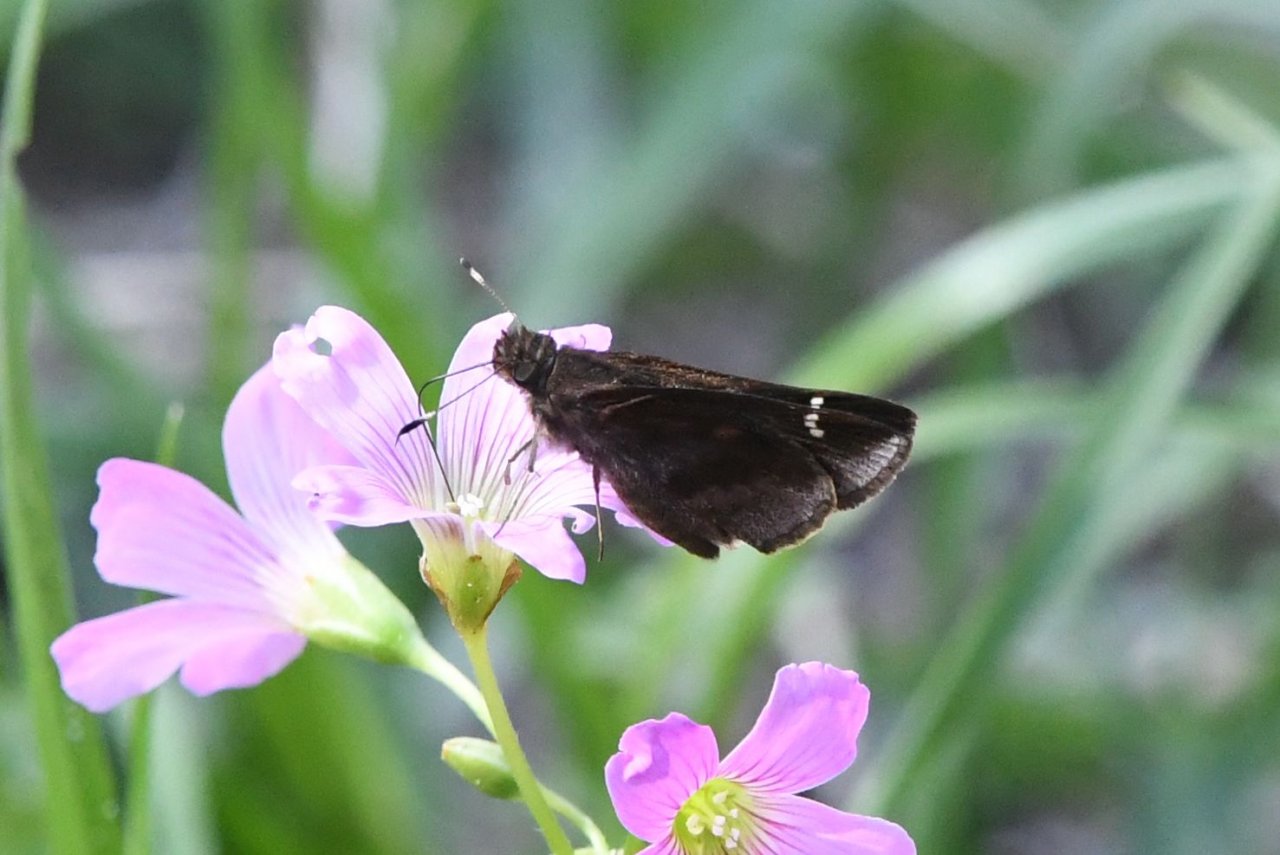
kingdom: Animalia
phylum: Arthropoda
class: Insecta
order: Lepidoptera
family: Hesperiidae
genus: Lerema
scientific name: Lerema accius
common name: Clouded Skipper
